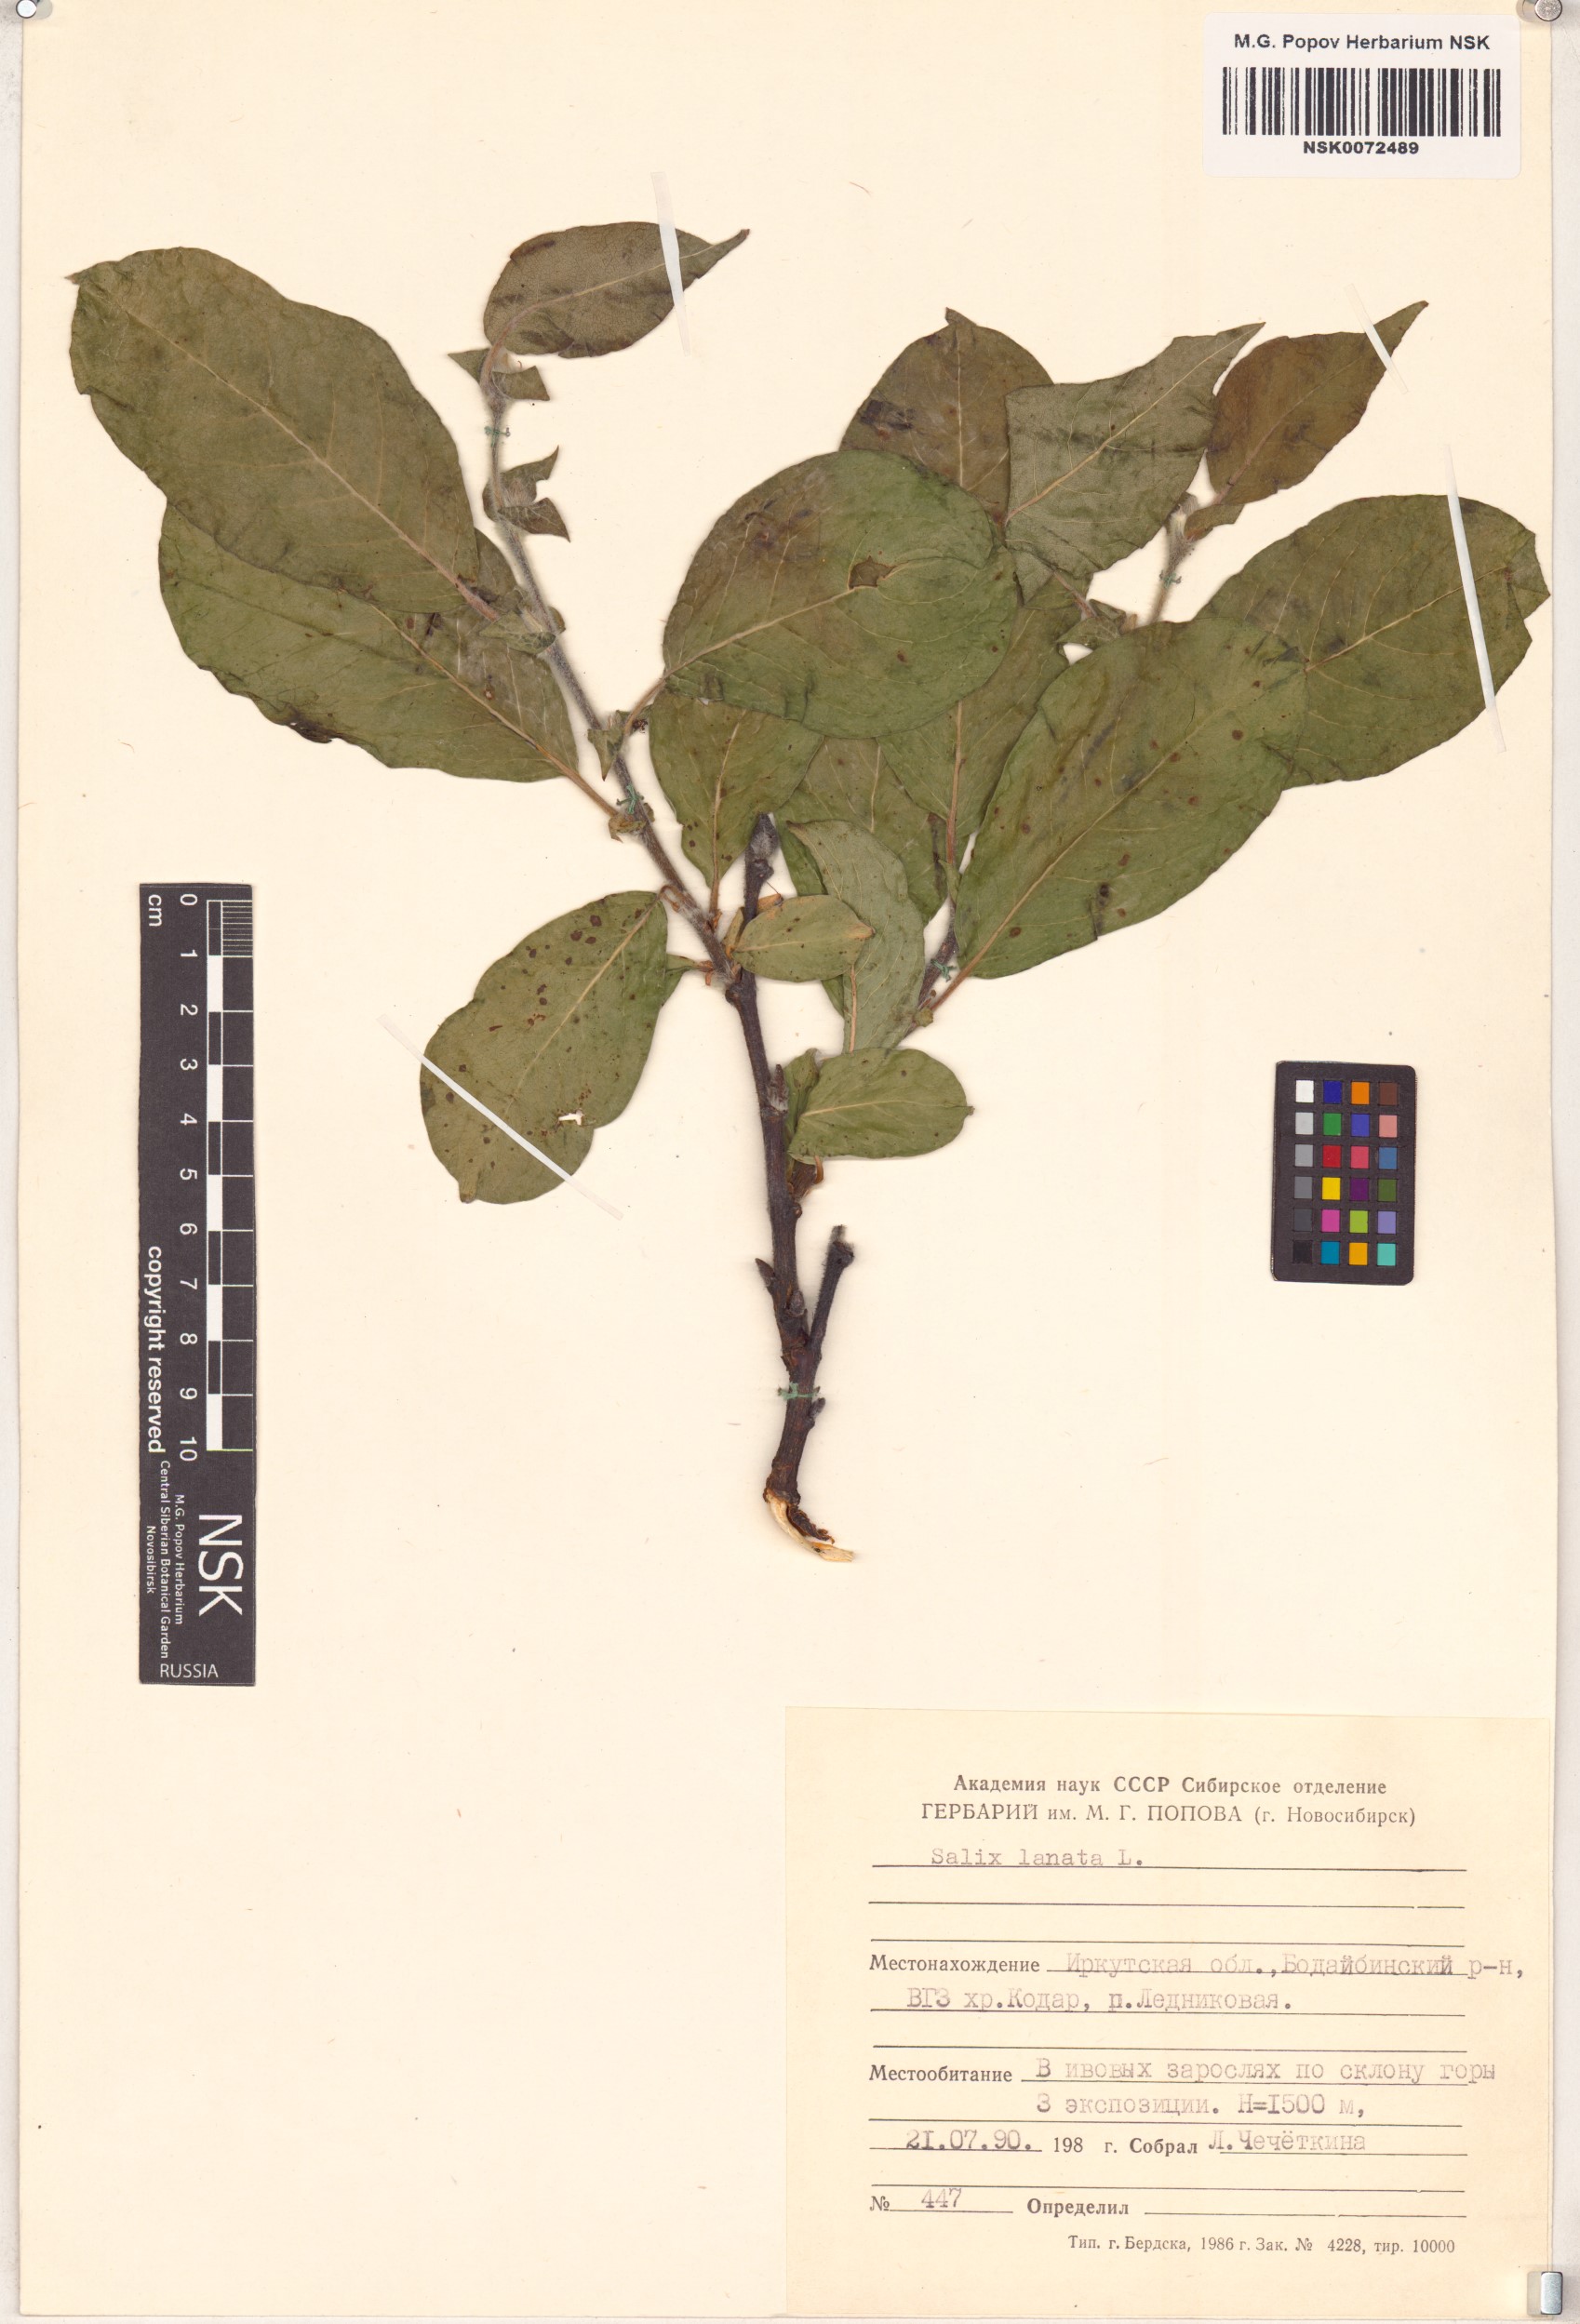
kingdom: Plantae
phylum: Tracheophyta
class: Magnoliopsida
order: Malpighiales
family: Salicaceae
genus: Salix
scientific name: Salix lanata
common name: Woolly willow
